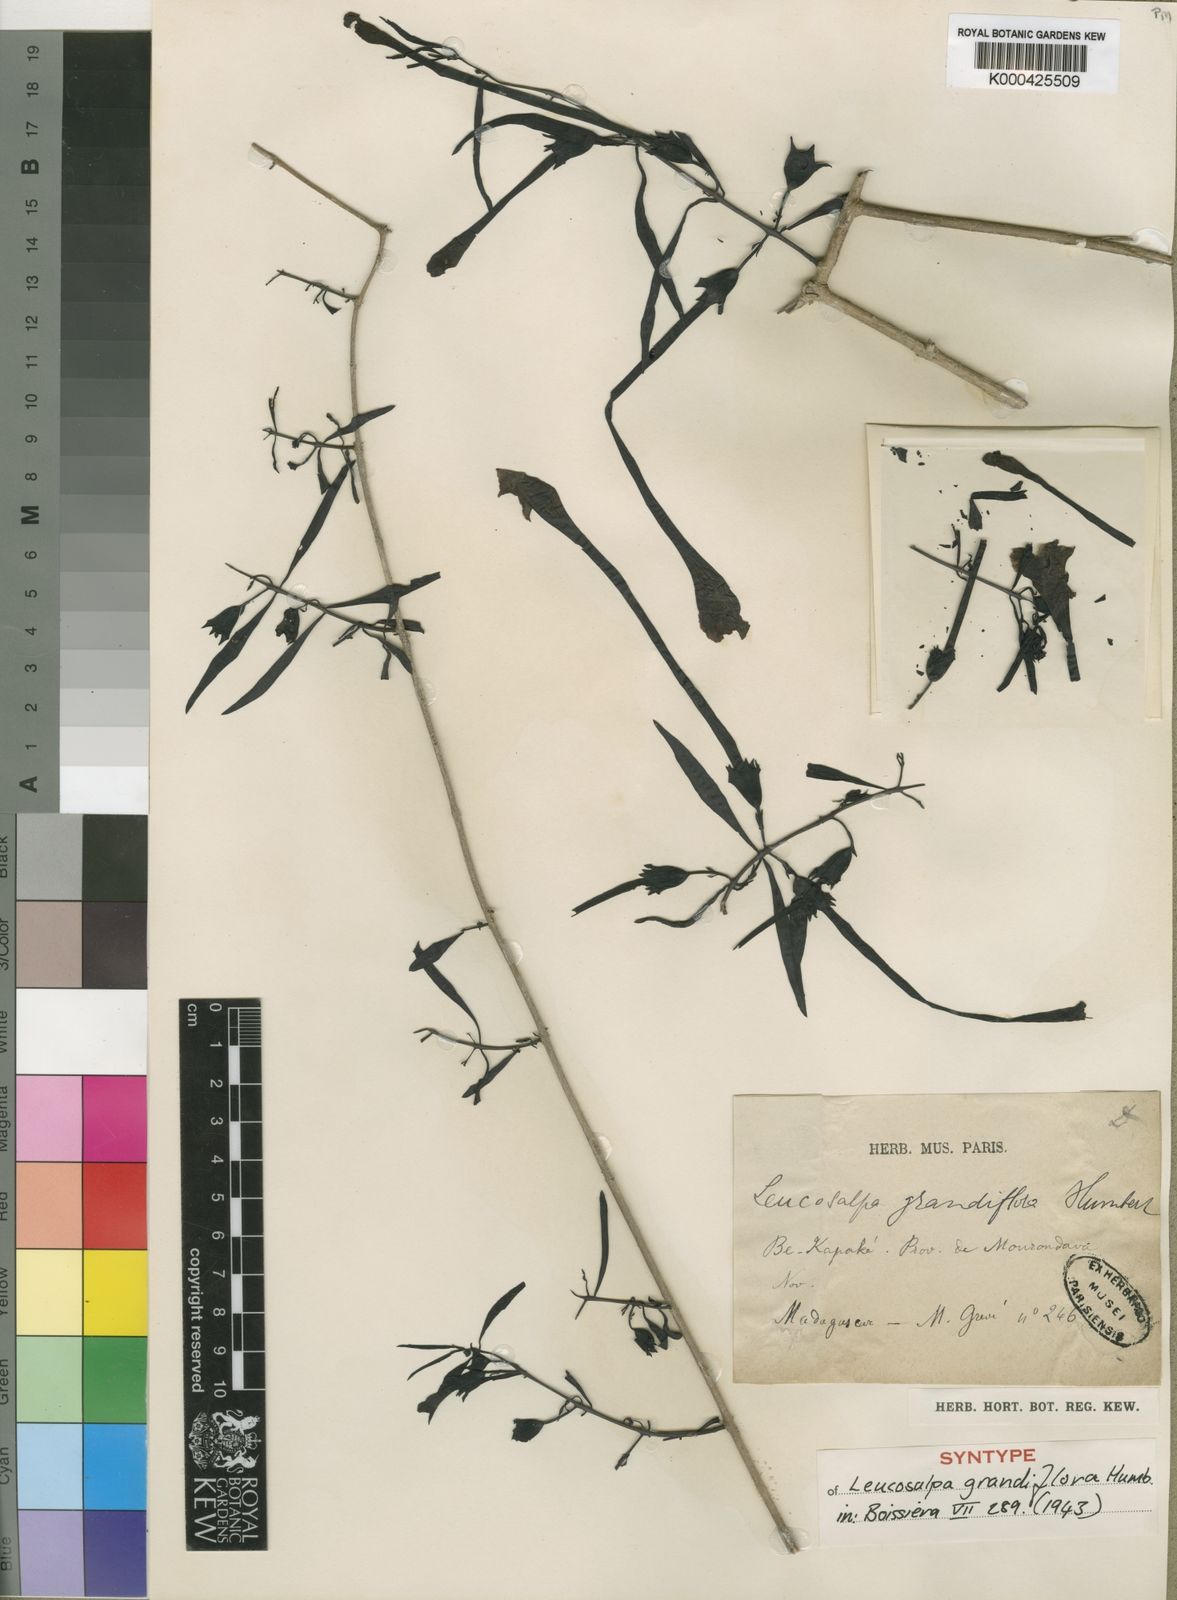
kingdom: Plantae
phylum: Tracheophyta
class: Magnoliopsida
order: Lamiales
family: Orobanchaceae
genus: Leucosalpa
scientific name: Leucosalpa grandiflora
